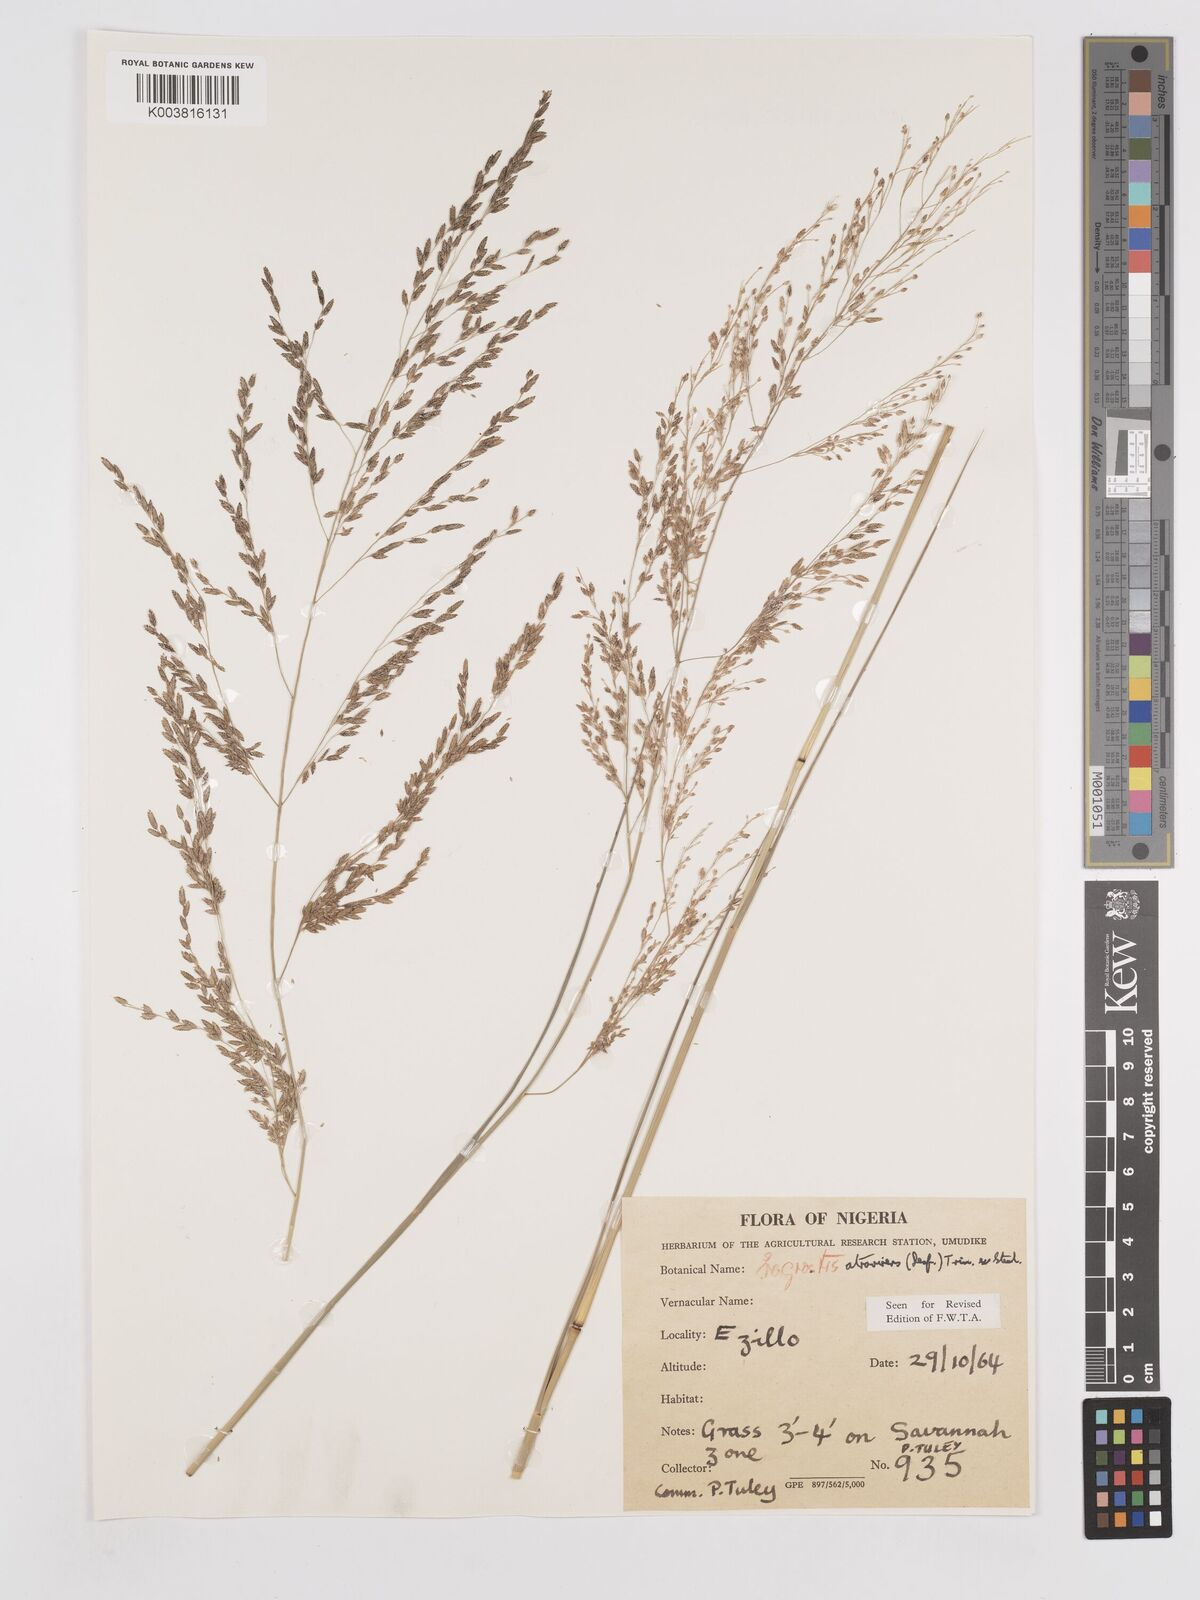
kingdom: Plantae
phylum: Tracheophyta
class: Liliopsida
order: Poales
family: Poaceae
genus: Eragrostis
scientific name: Eragrostis atrovirens
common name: Thalia lovegrass
